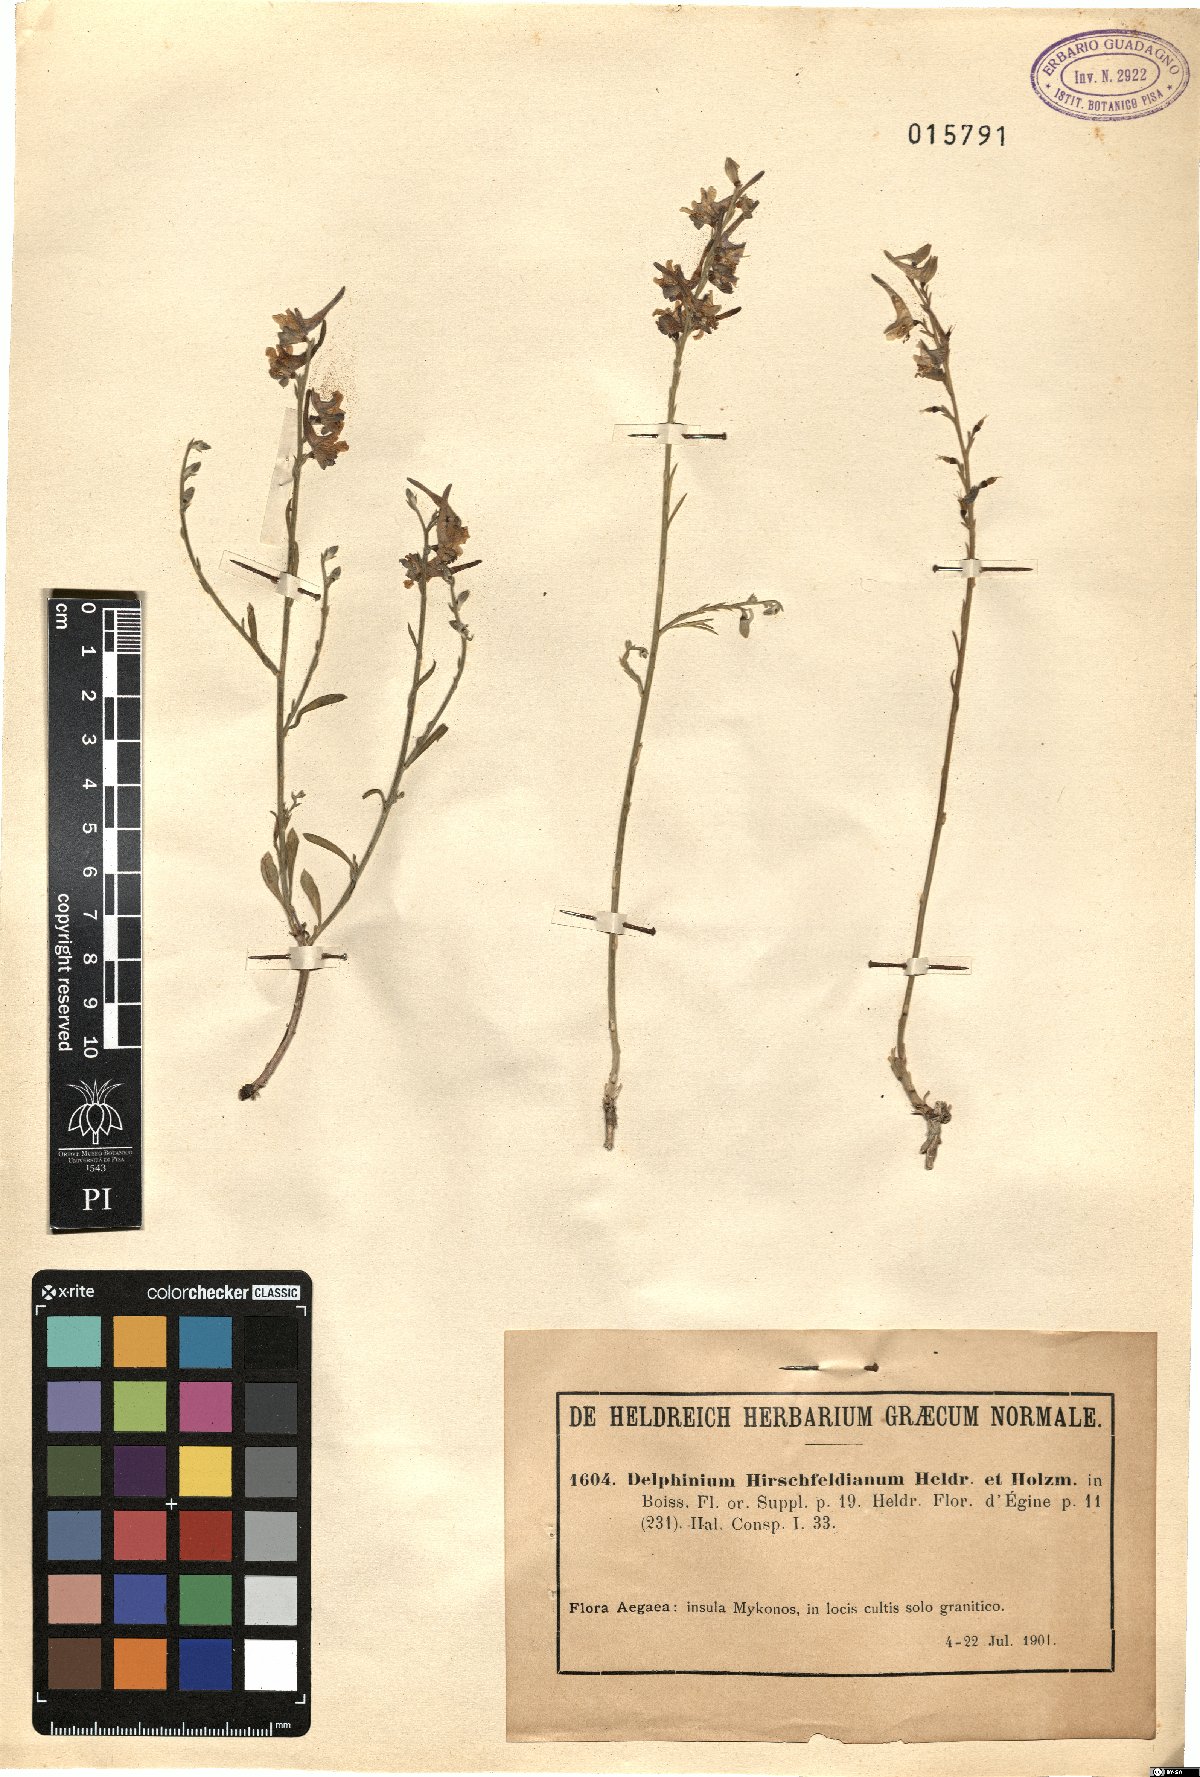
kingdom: Plantae
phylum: Tracheophyta
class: Magnoliopsida
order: Ranunculales
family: Ranunculaceae
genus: Delphinium
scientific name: Delphinium peregrinum
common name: Violet larkspur
